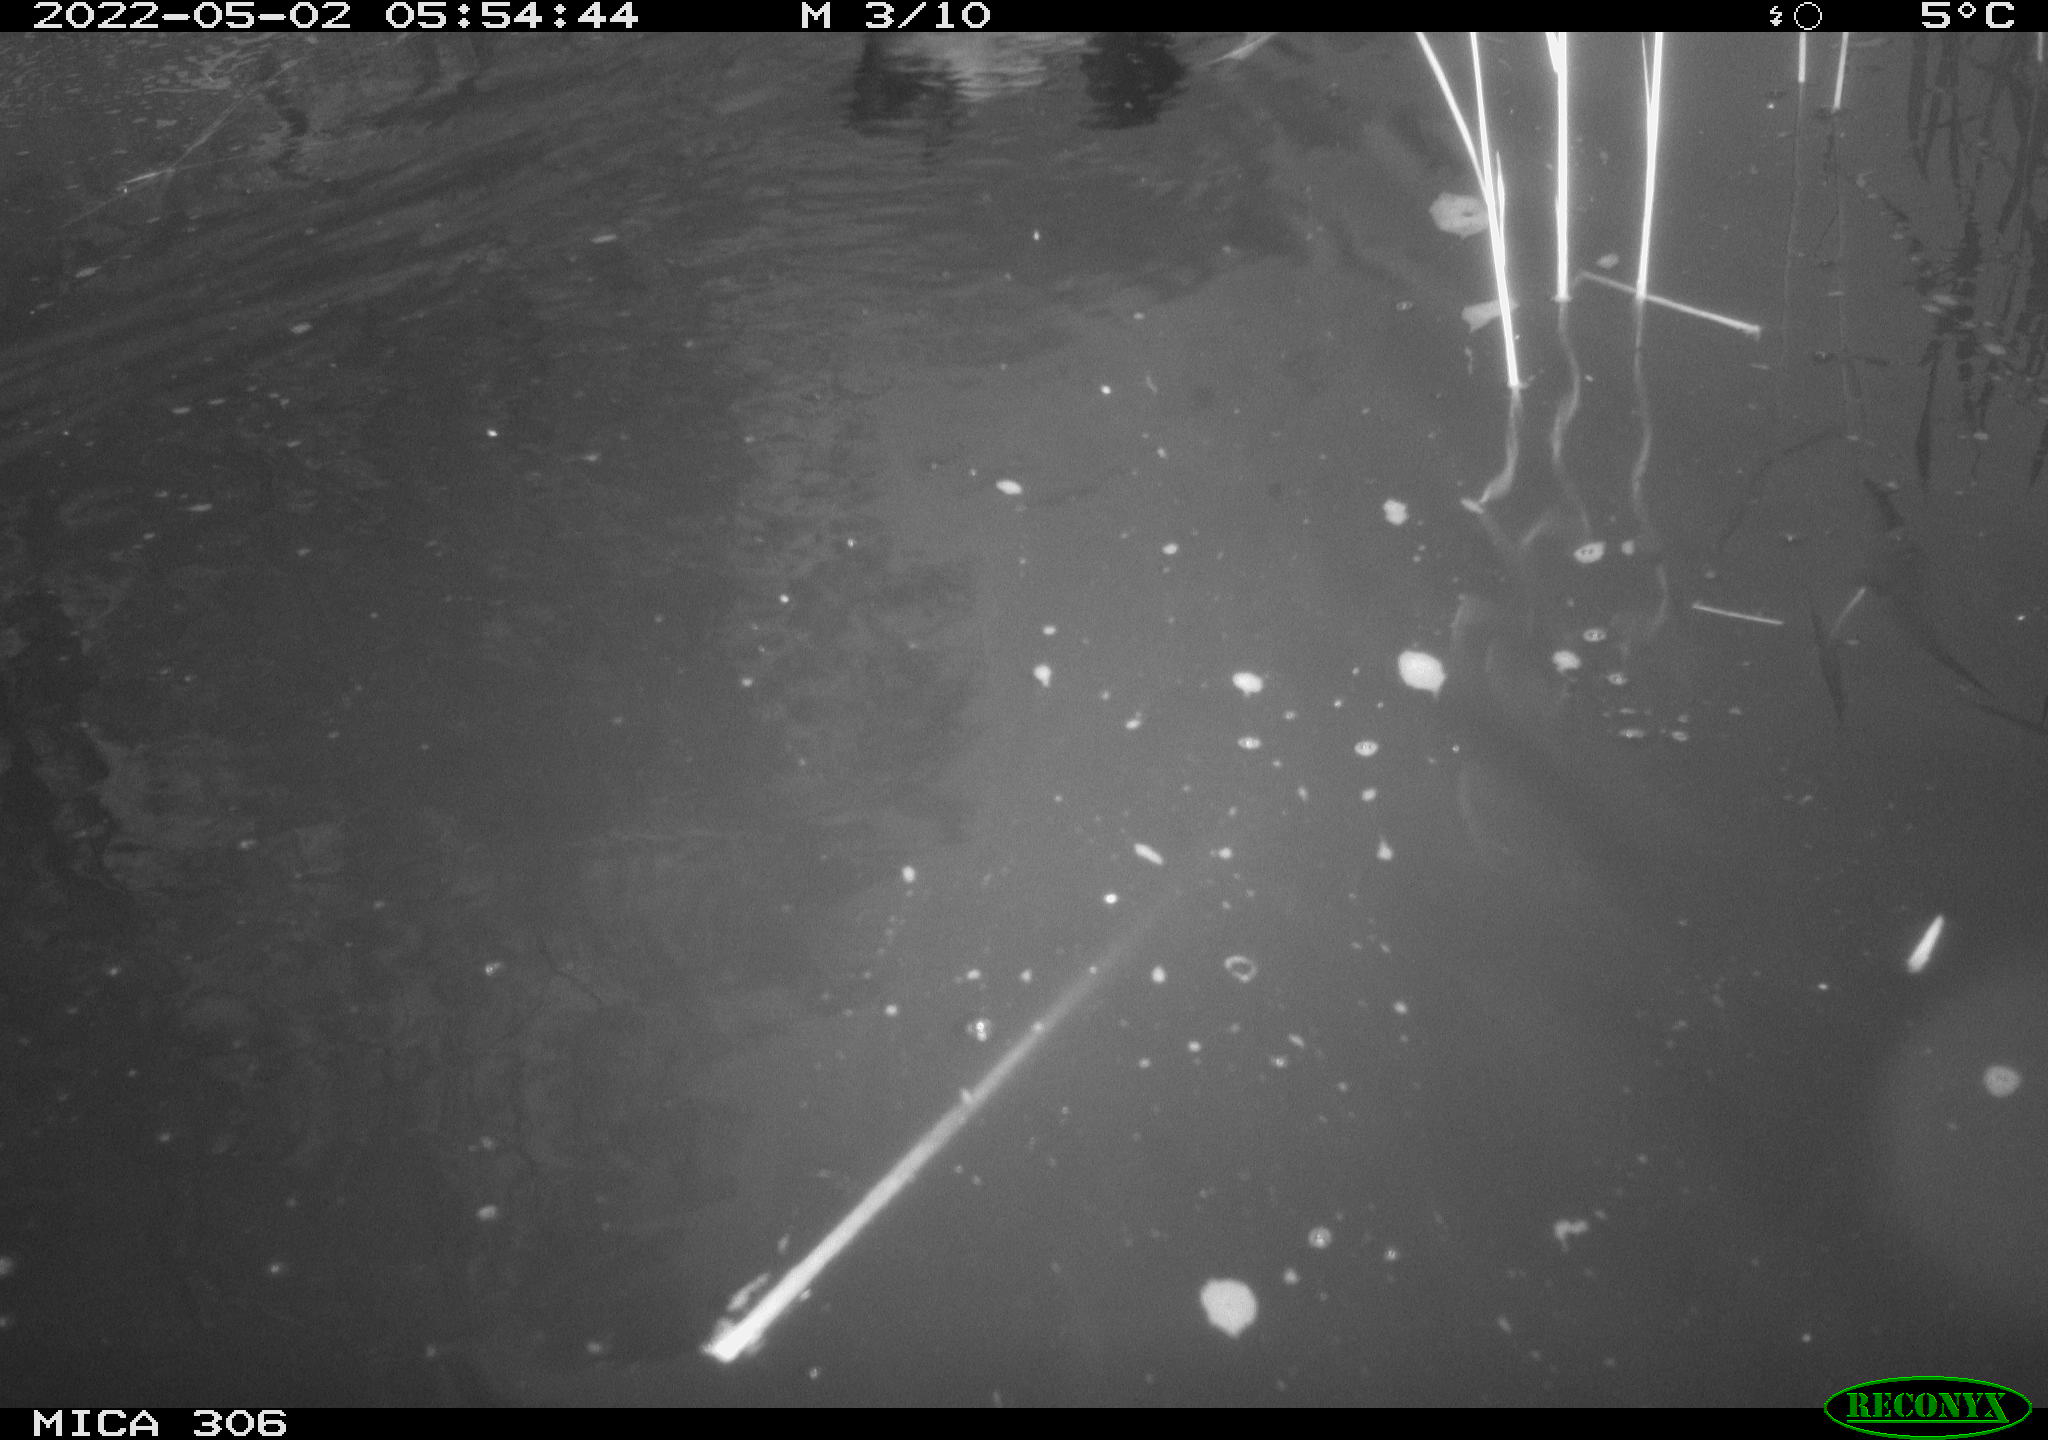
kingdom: Animalia
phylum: Chordata
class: Aves
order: Anseriformes
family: Anatidae
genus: Anas
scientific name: Anas platyrhynchos
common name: Mallard
